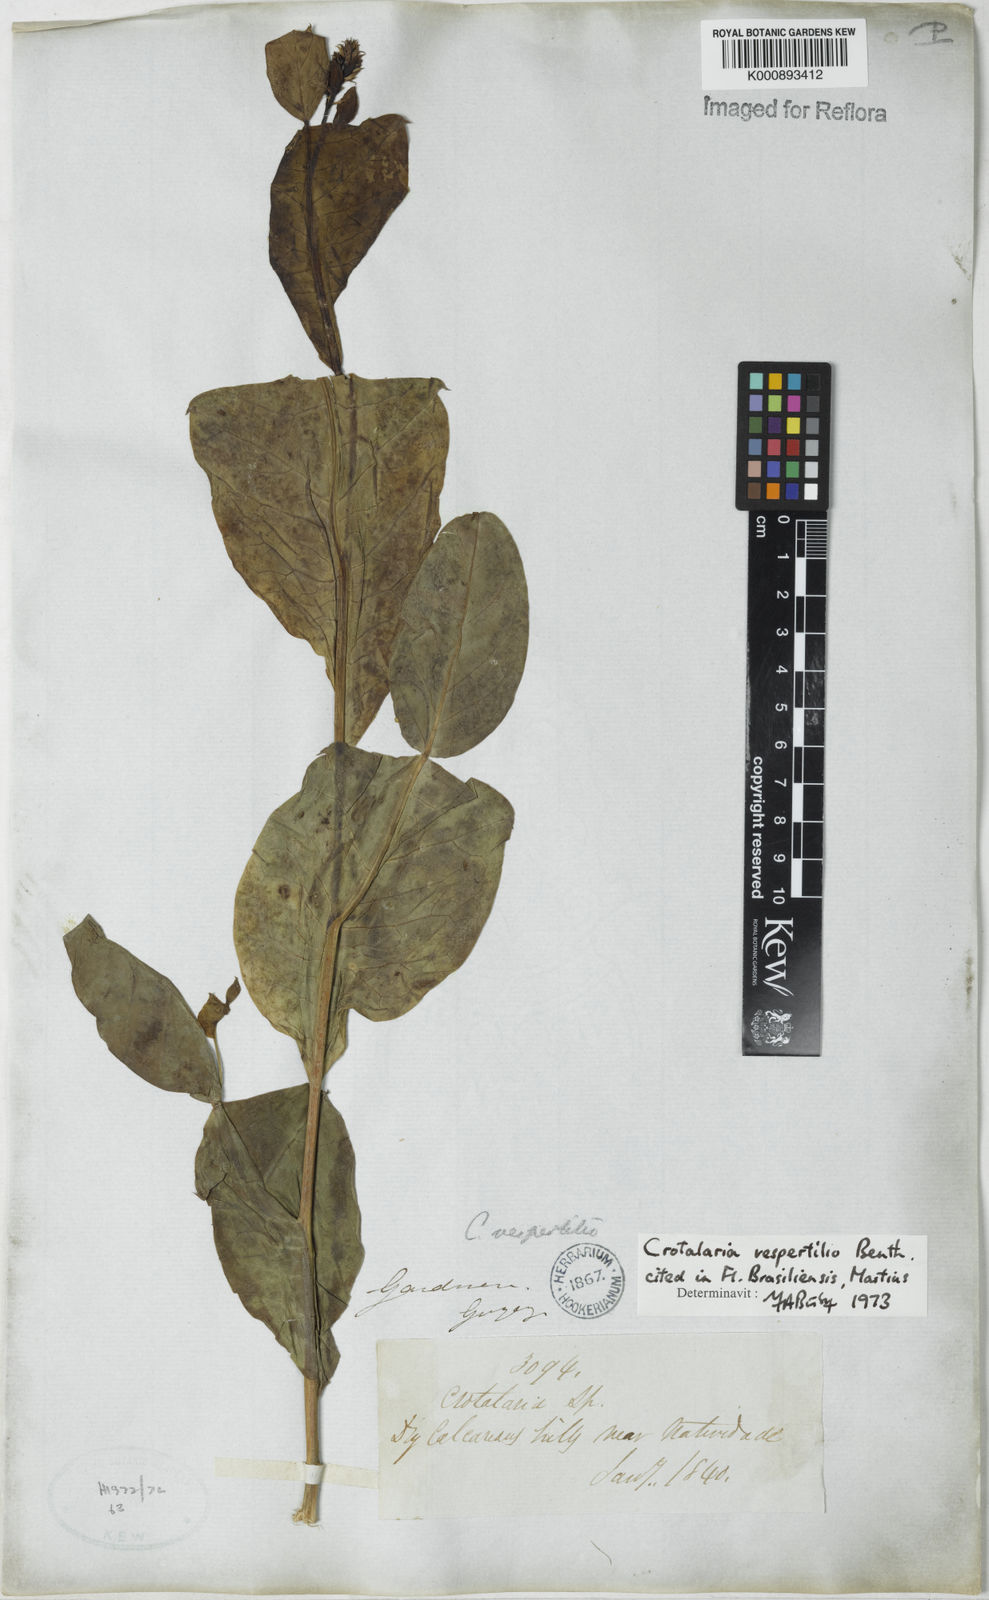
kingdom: Plantae
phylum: Tracheophyta
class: Magnoliopsida
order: Fabales
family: Fabaceae
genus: Crotalaria
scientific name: Crotalaria vespertilio
